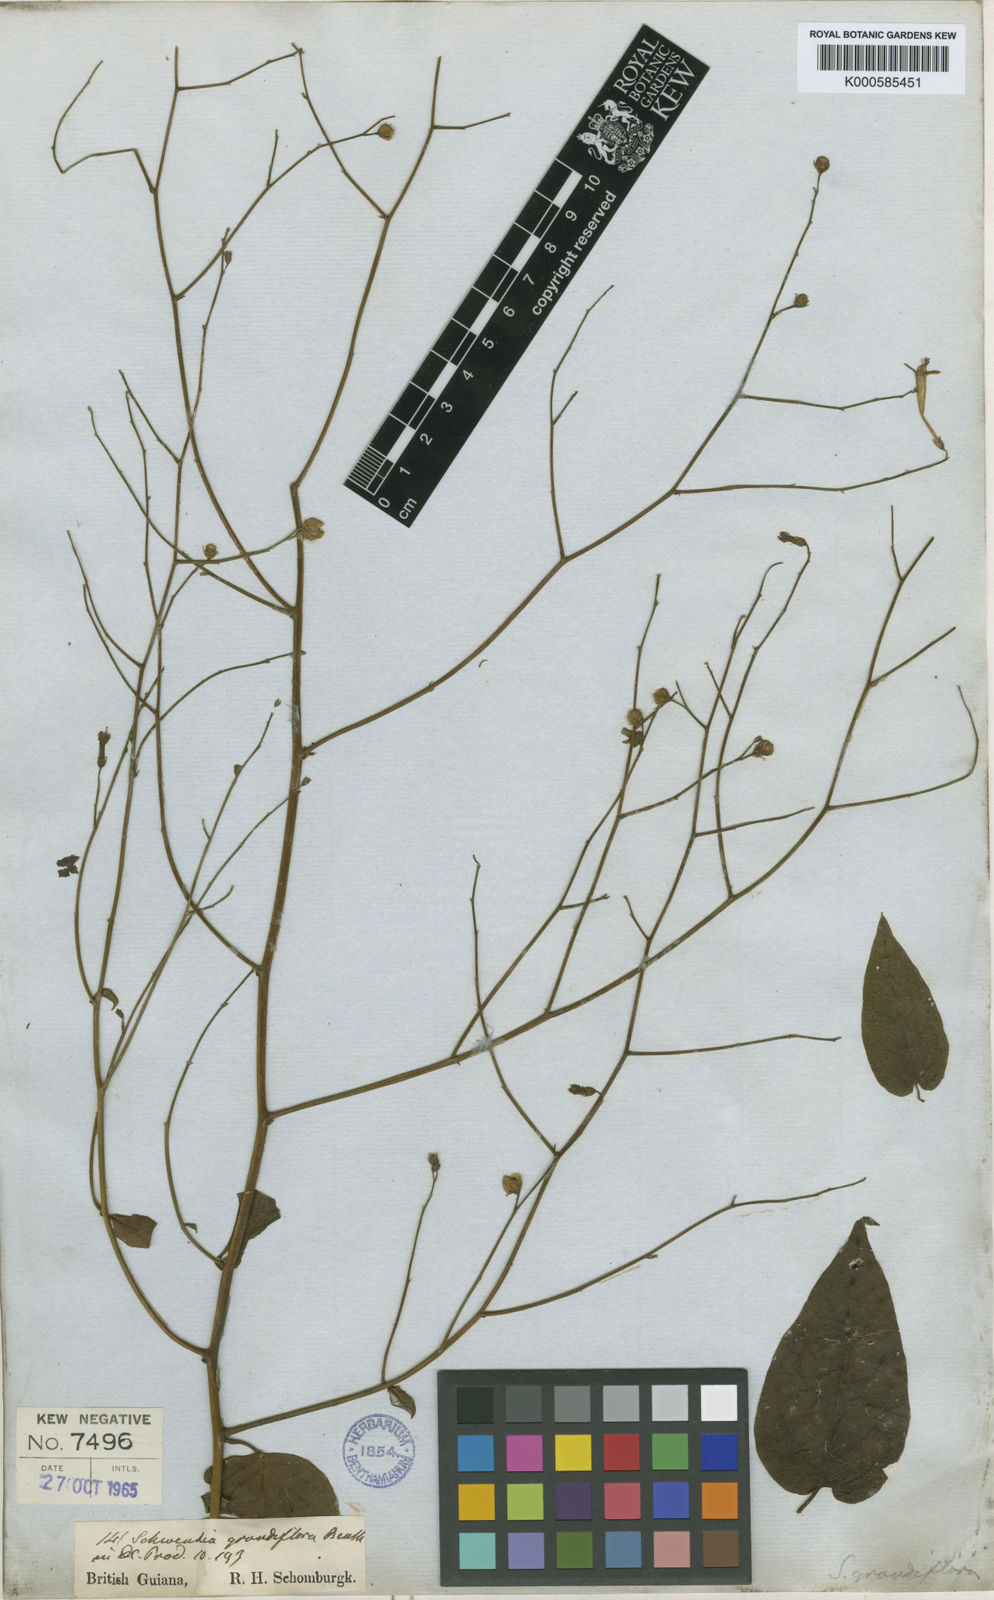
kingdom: Plantae
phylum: Tracheophyta
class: Magnoliopsida
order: Solanales
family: Solanaceae
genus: Schwenckia
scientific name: Schwenckia grandiflora
